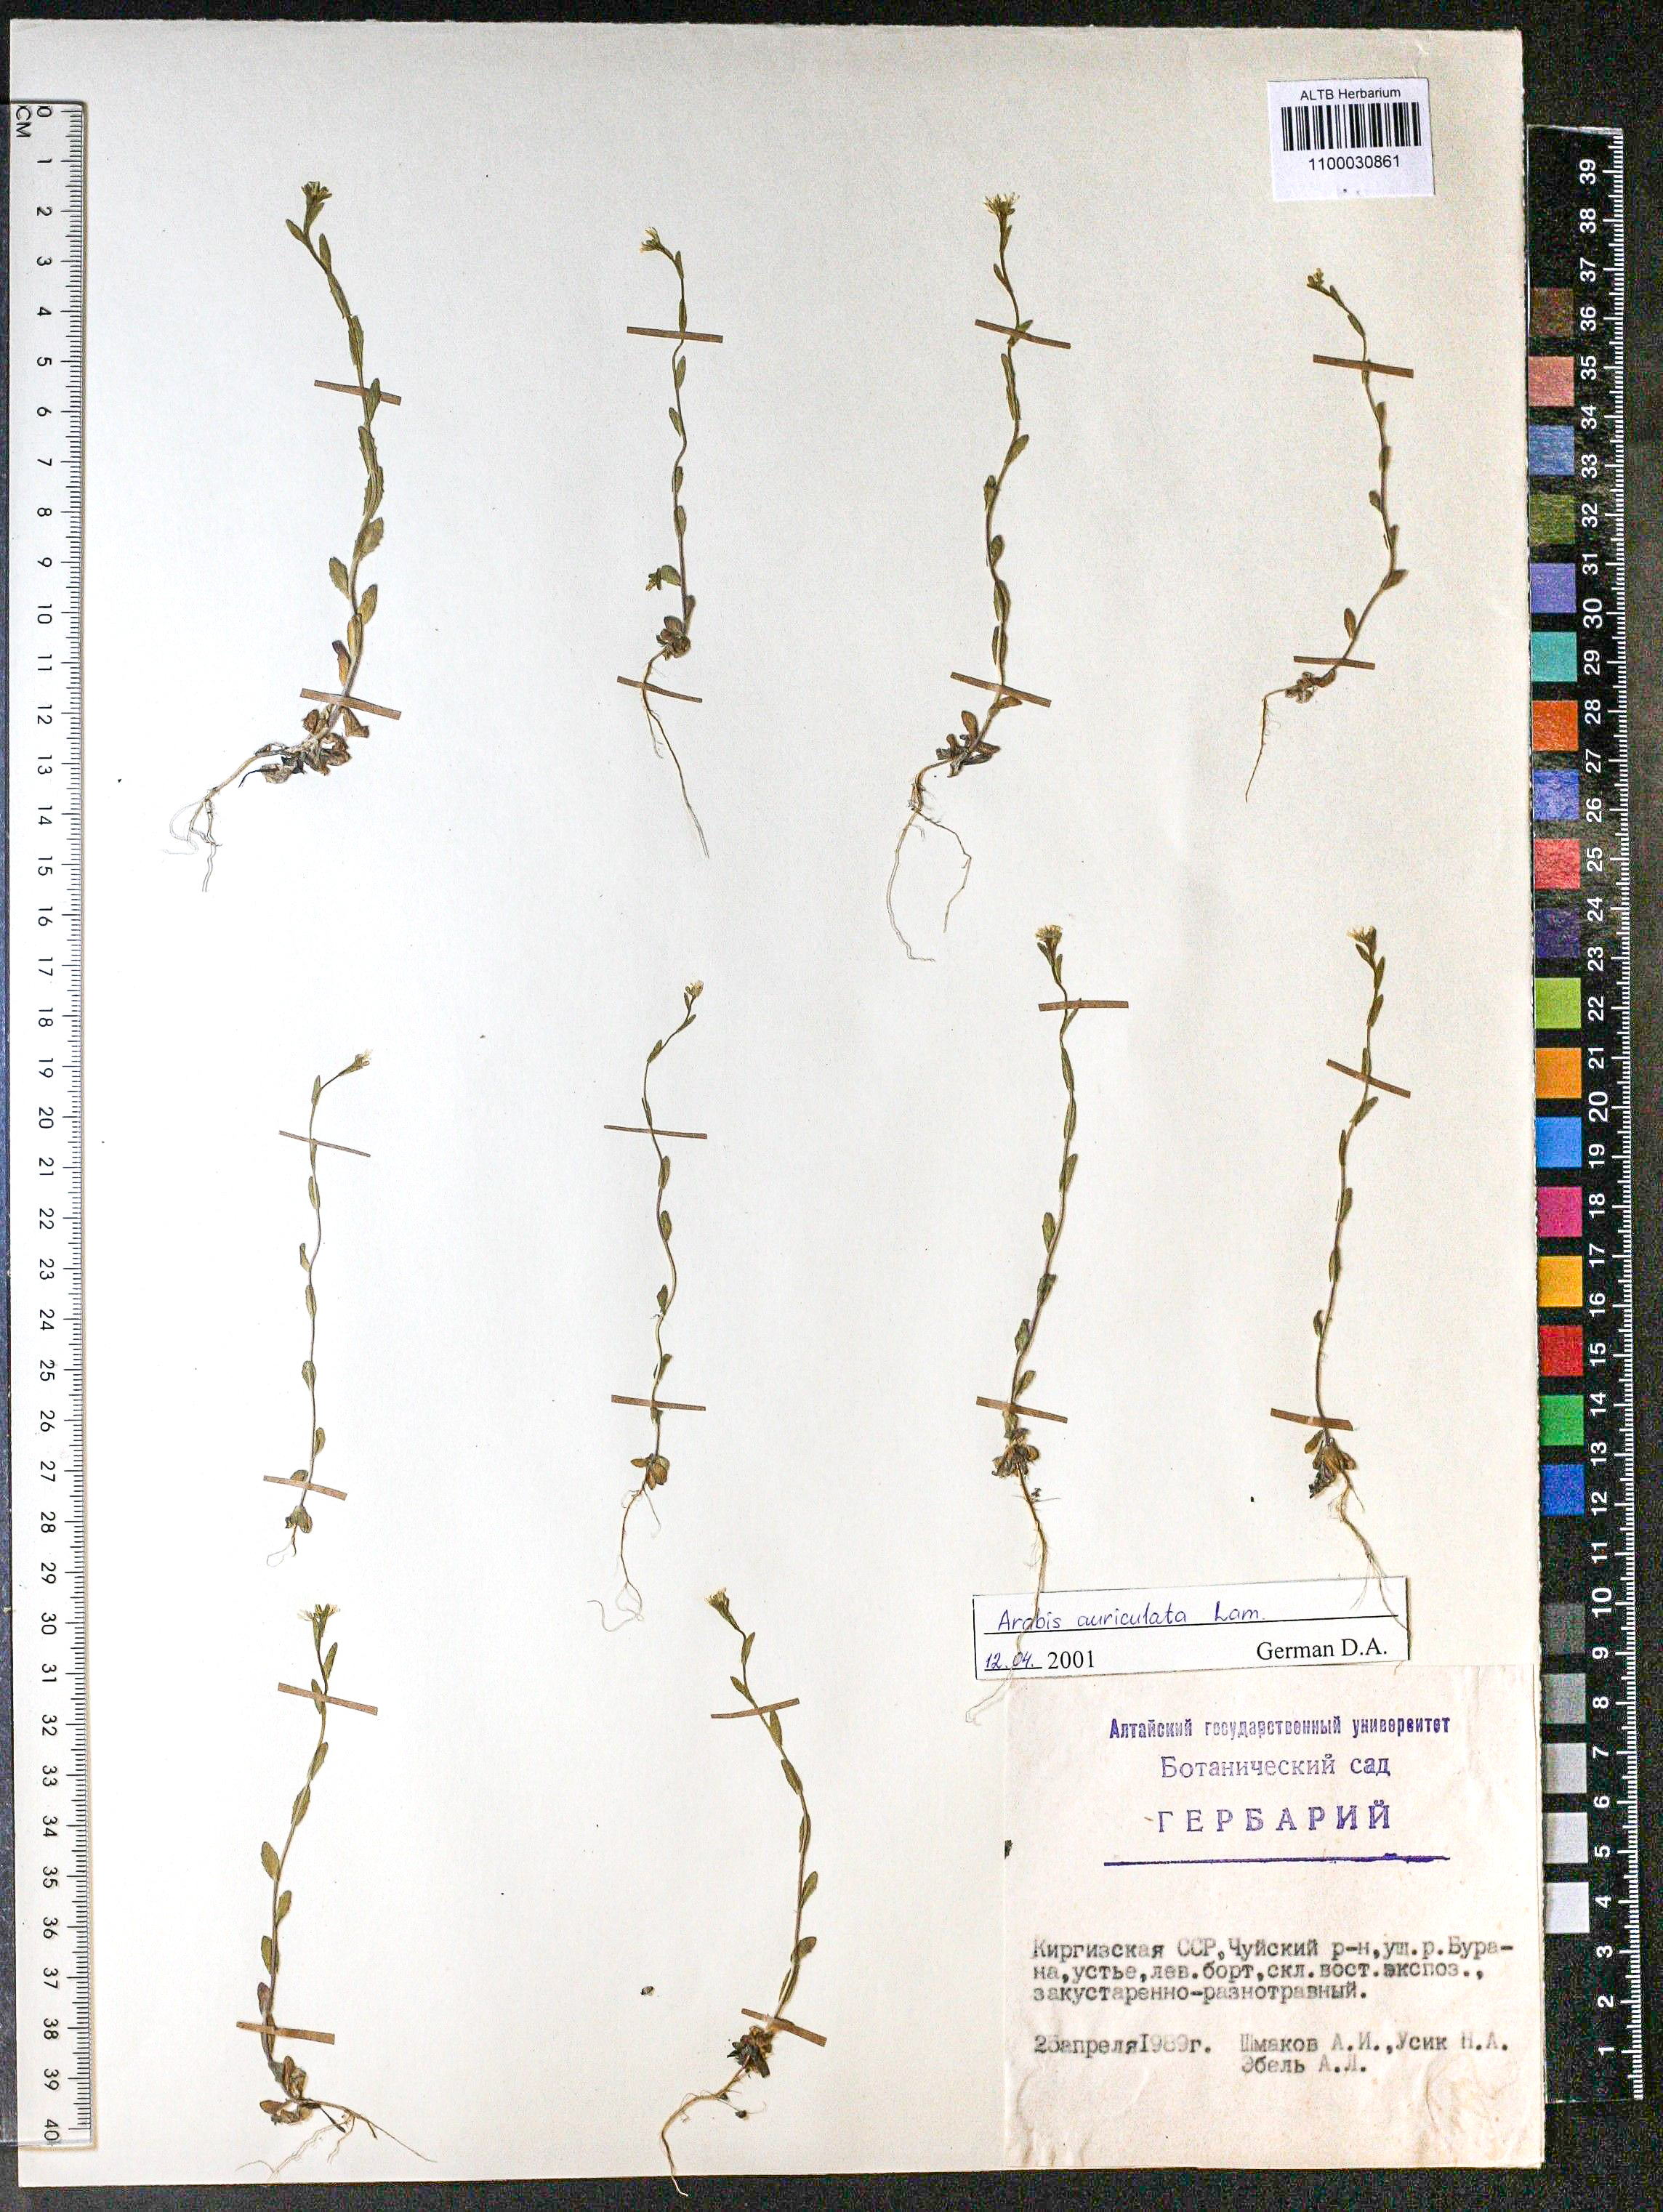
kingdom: Plantae
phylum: Tracheophyta
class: Magnoliopsida
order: Brassicales
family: Brassicaceae
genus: Arabis
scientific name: Arabis auriculata
